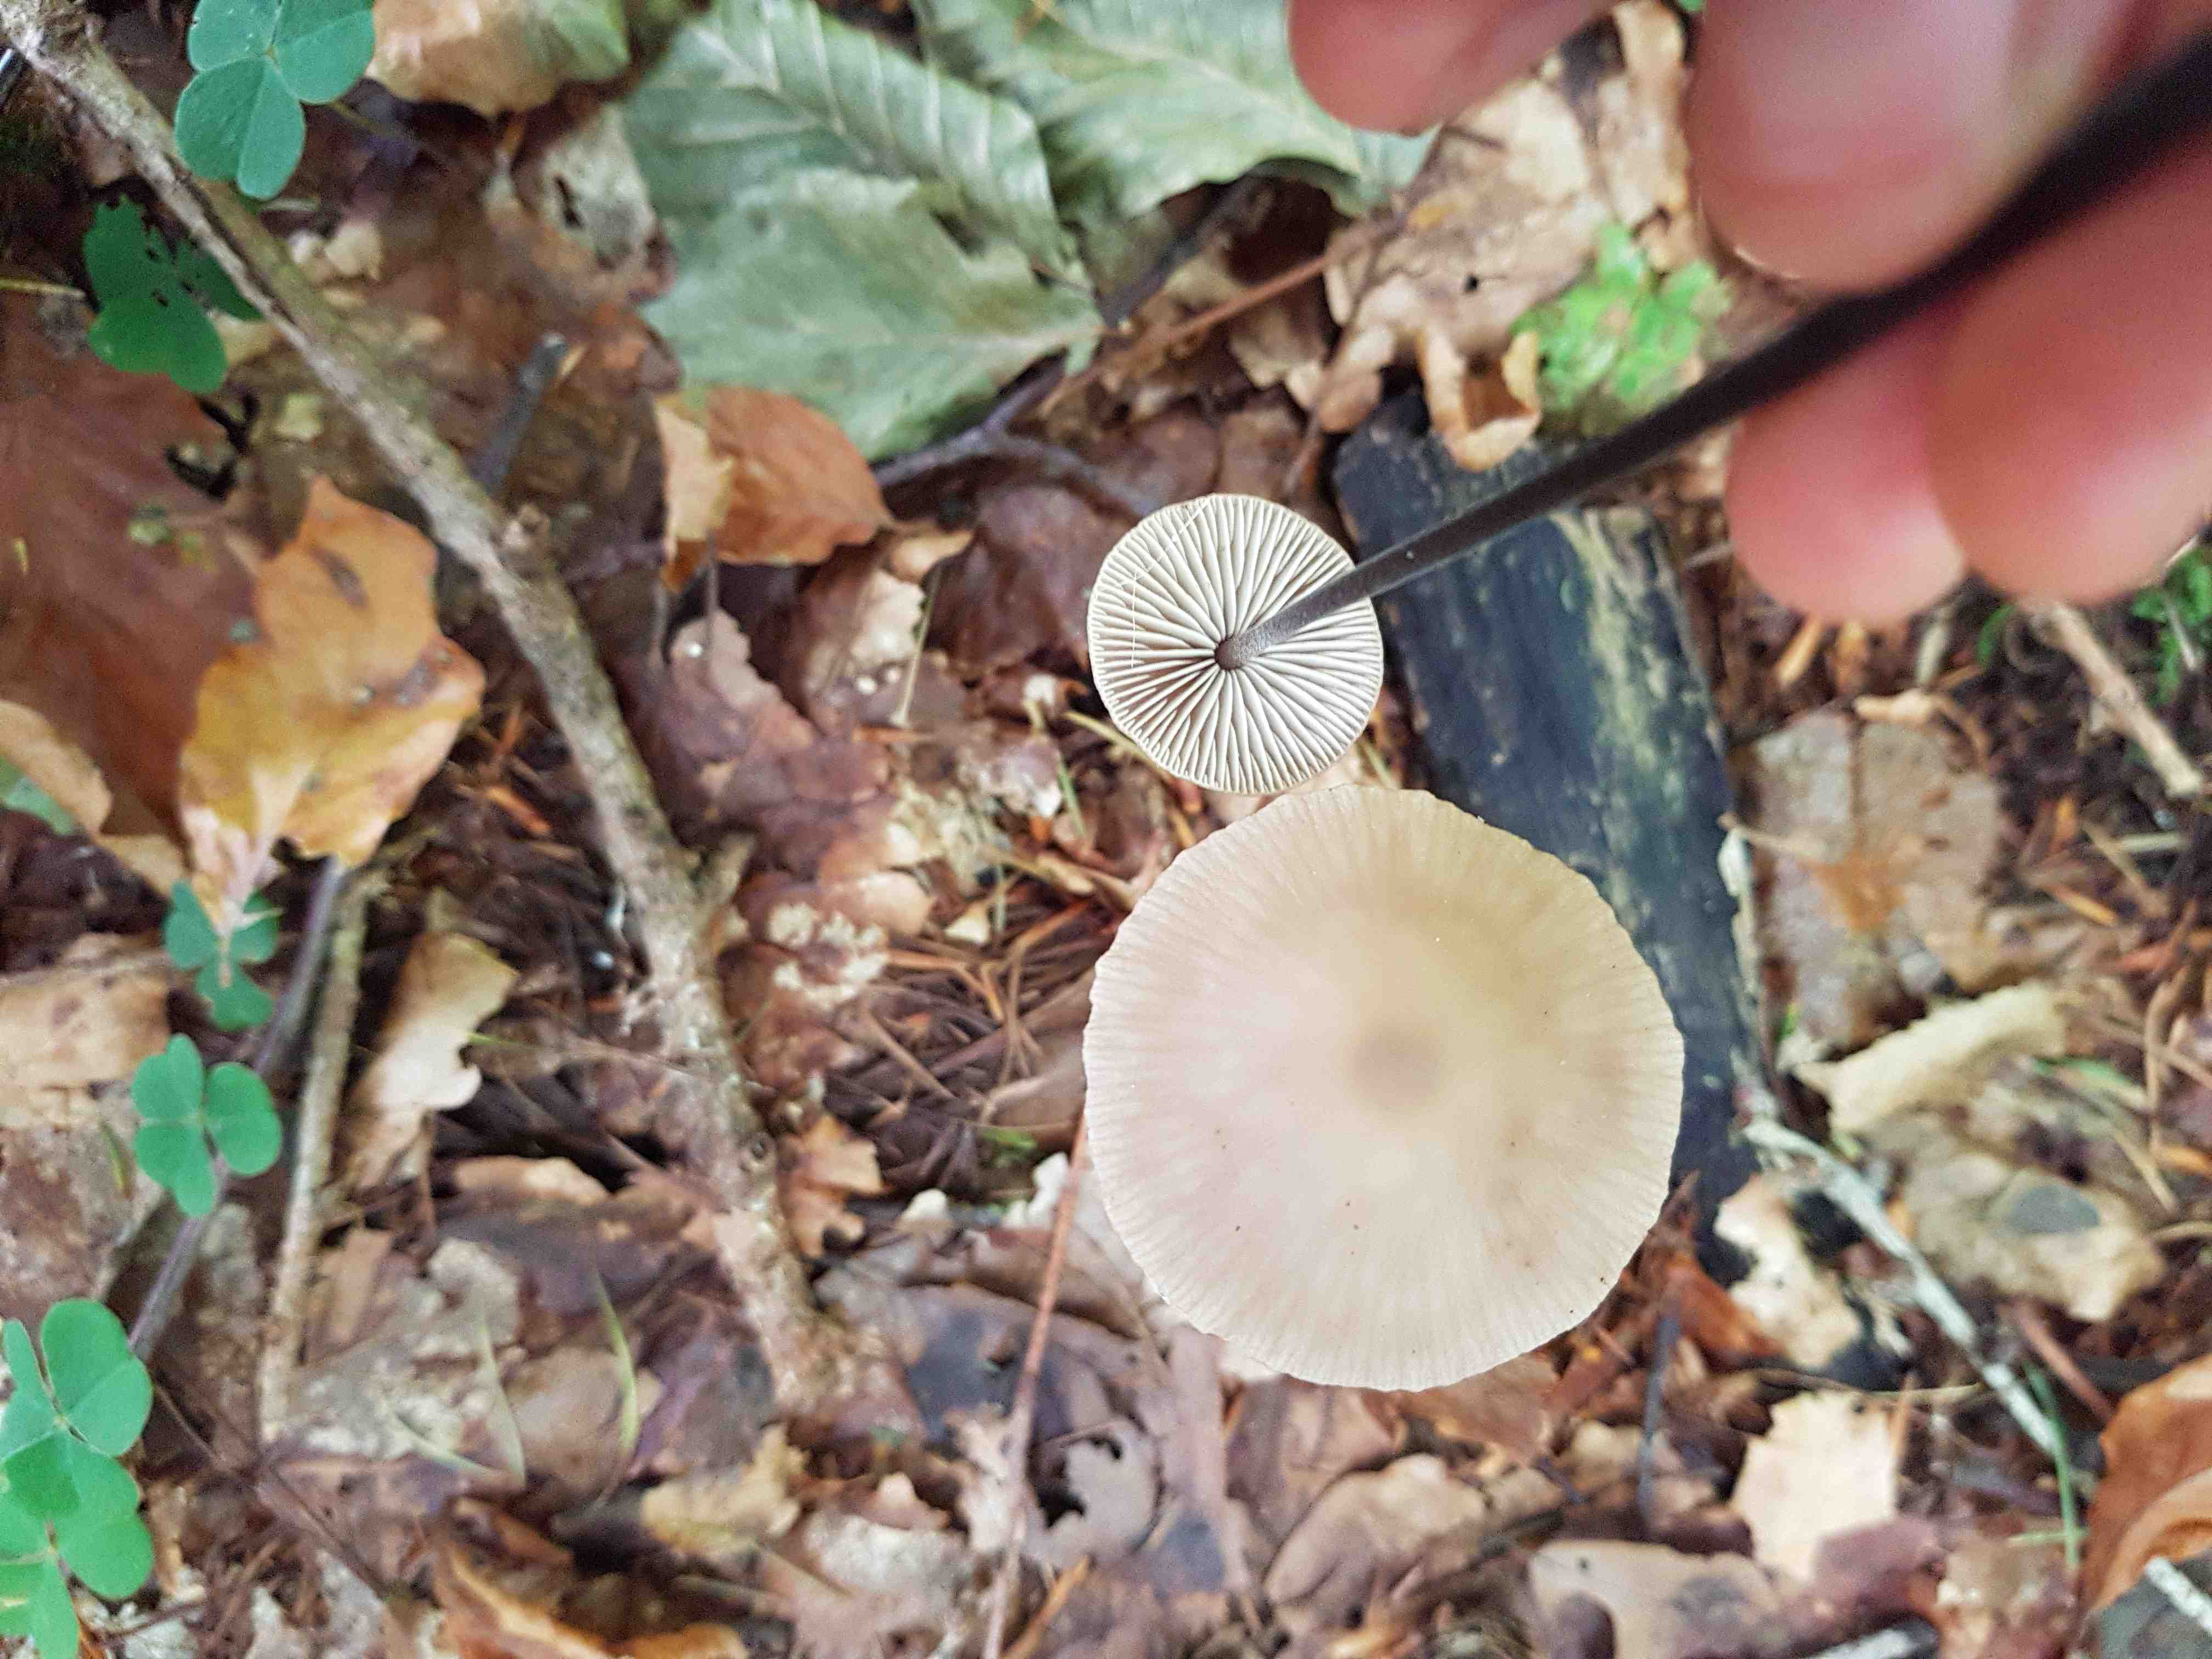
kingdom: Fungi
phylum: Basidiomycota
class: Agaricomycetes
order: Agaricales
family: Omphalotaceae
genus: Mycetinis
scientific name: Mycetinis alliaceus
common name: stor løghat
